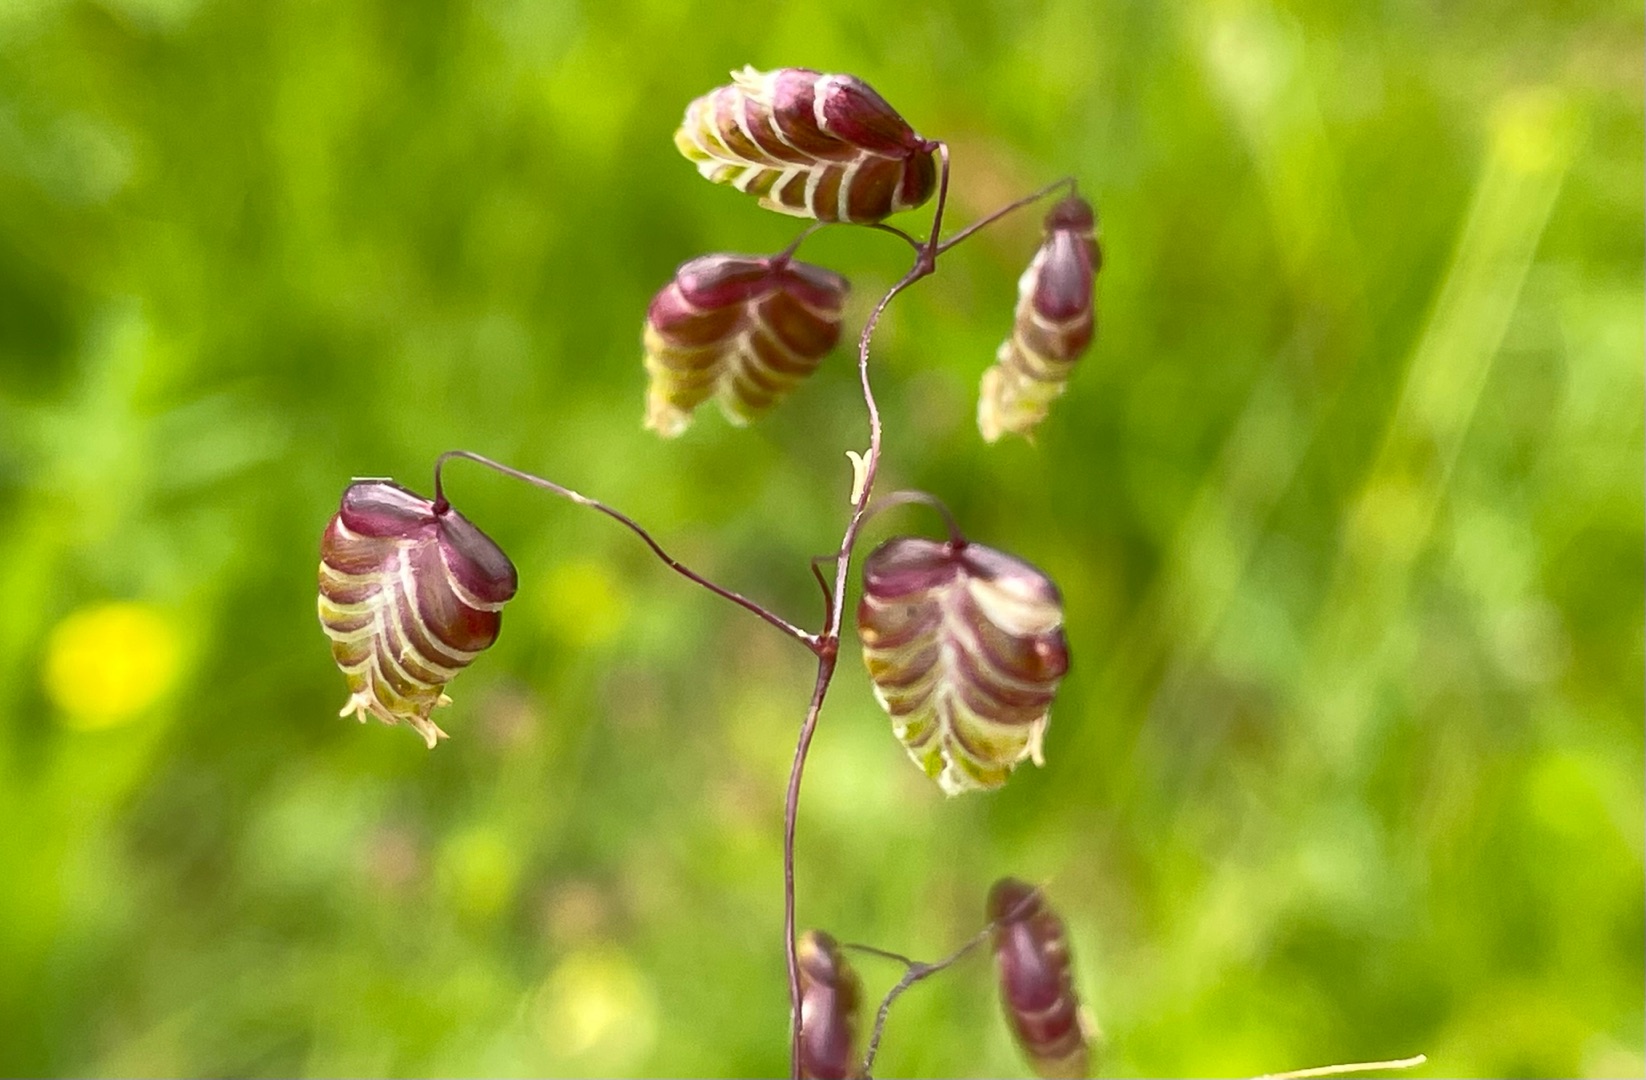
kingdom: Plantae
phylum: Tracheophyta
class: Liliopsida
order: Poales
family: Poaceae
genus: Briza
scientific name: Briza media
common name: Hjertegræs
